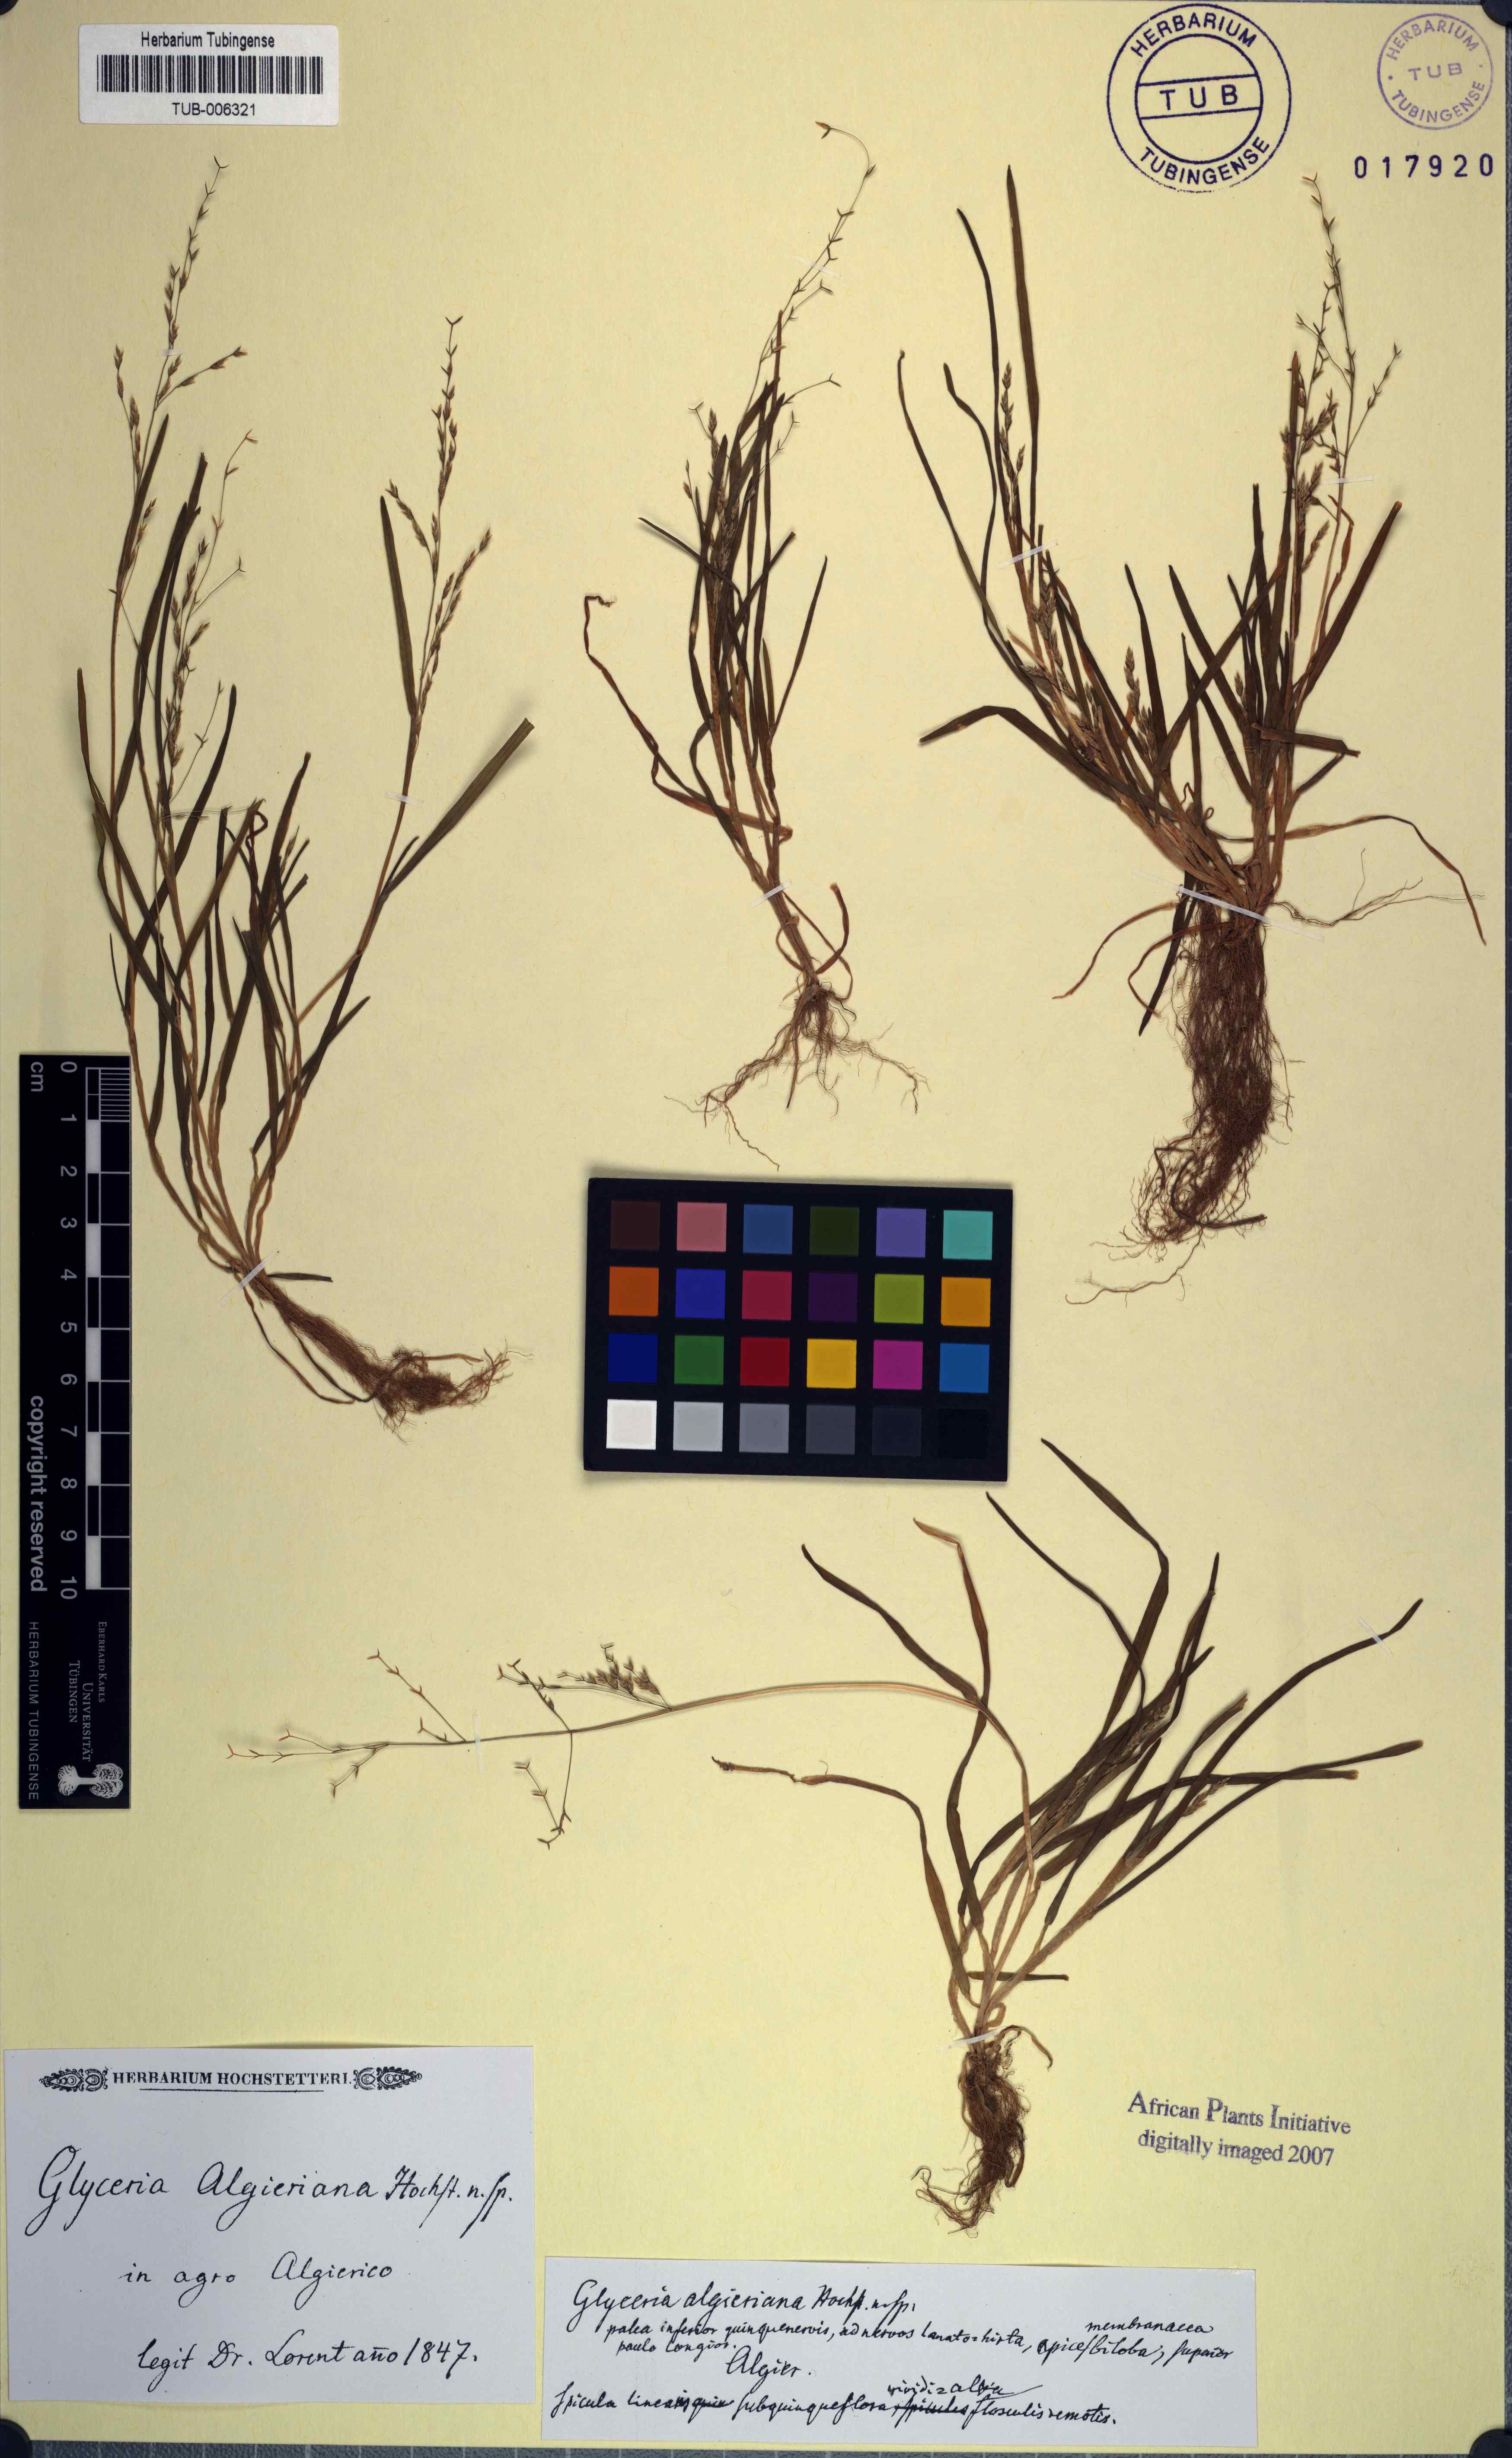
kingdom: Plantae
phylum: Tracheophyta
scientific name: Tracheophyta
